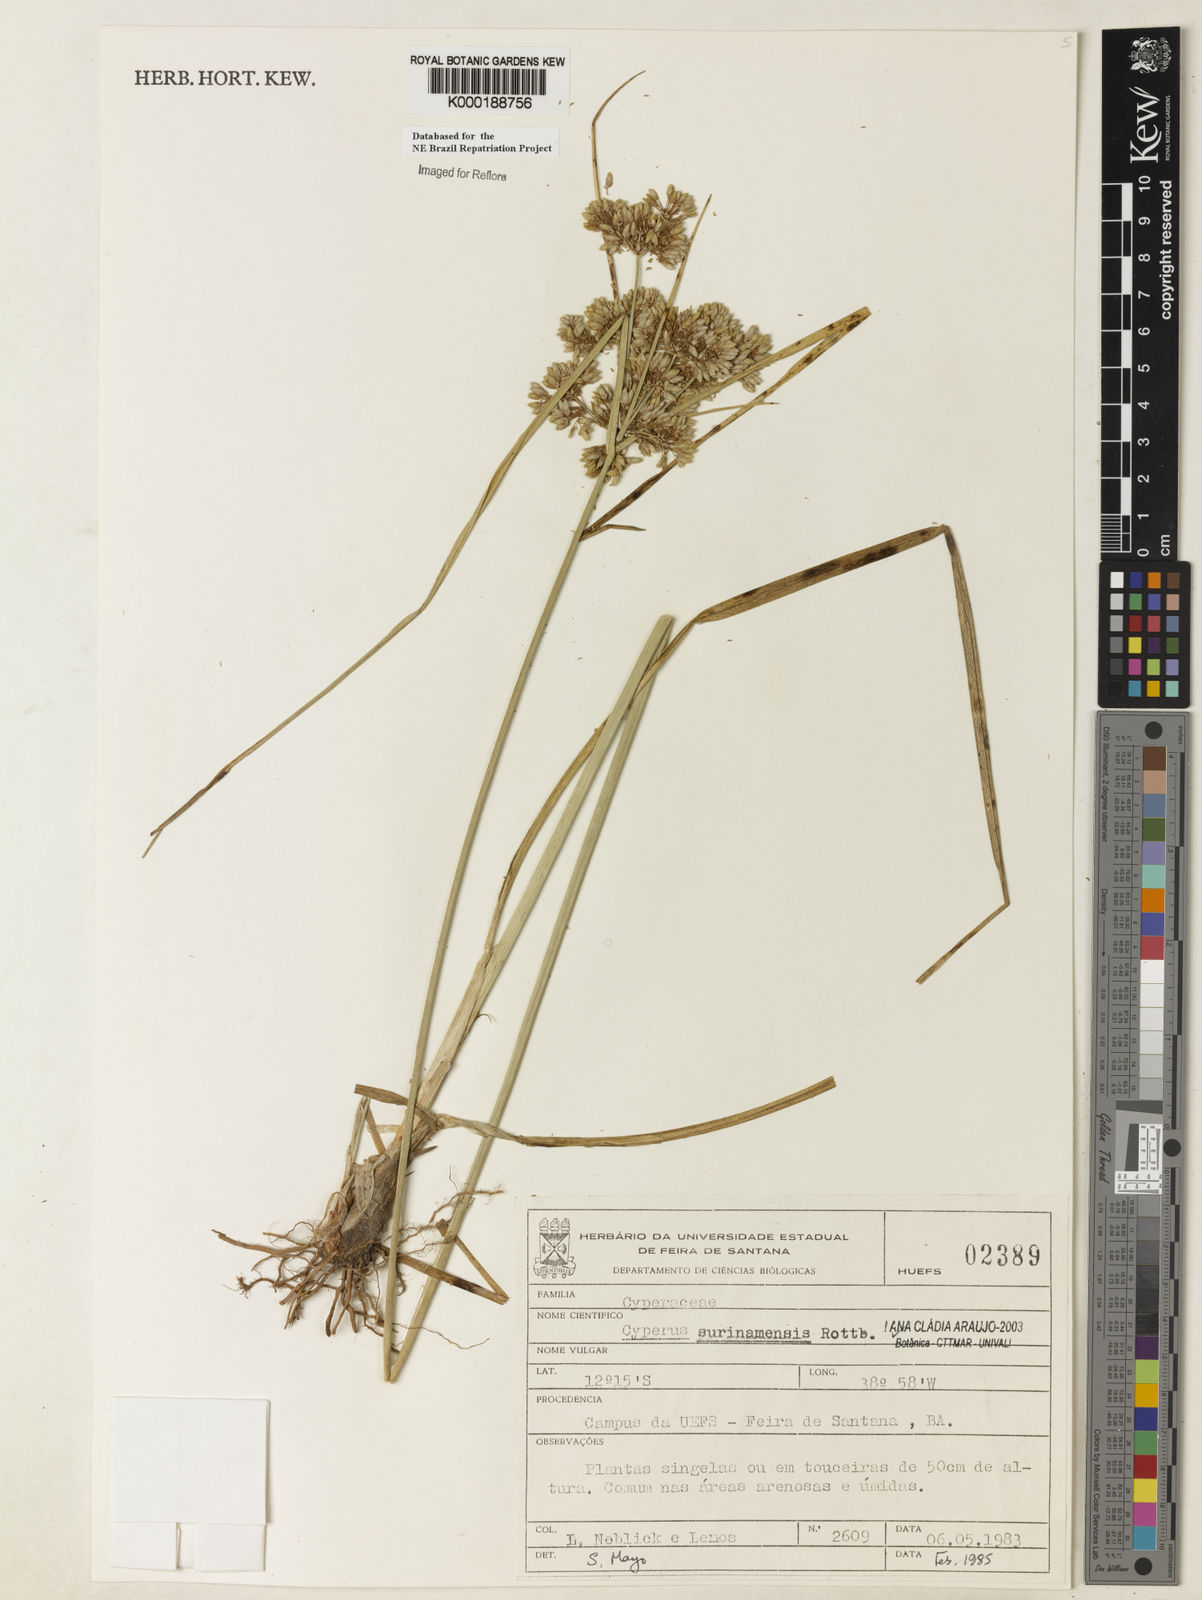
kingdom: Plantae
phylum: Tracheophyta
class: Liliopsida
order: Poales
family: Cyperaceae
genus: Cyperus
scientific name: Cyperus surinamensis
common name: Tropical flat sedge
